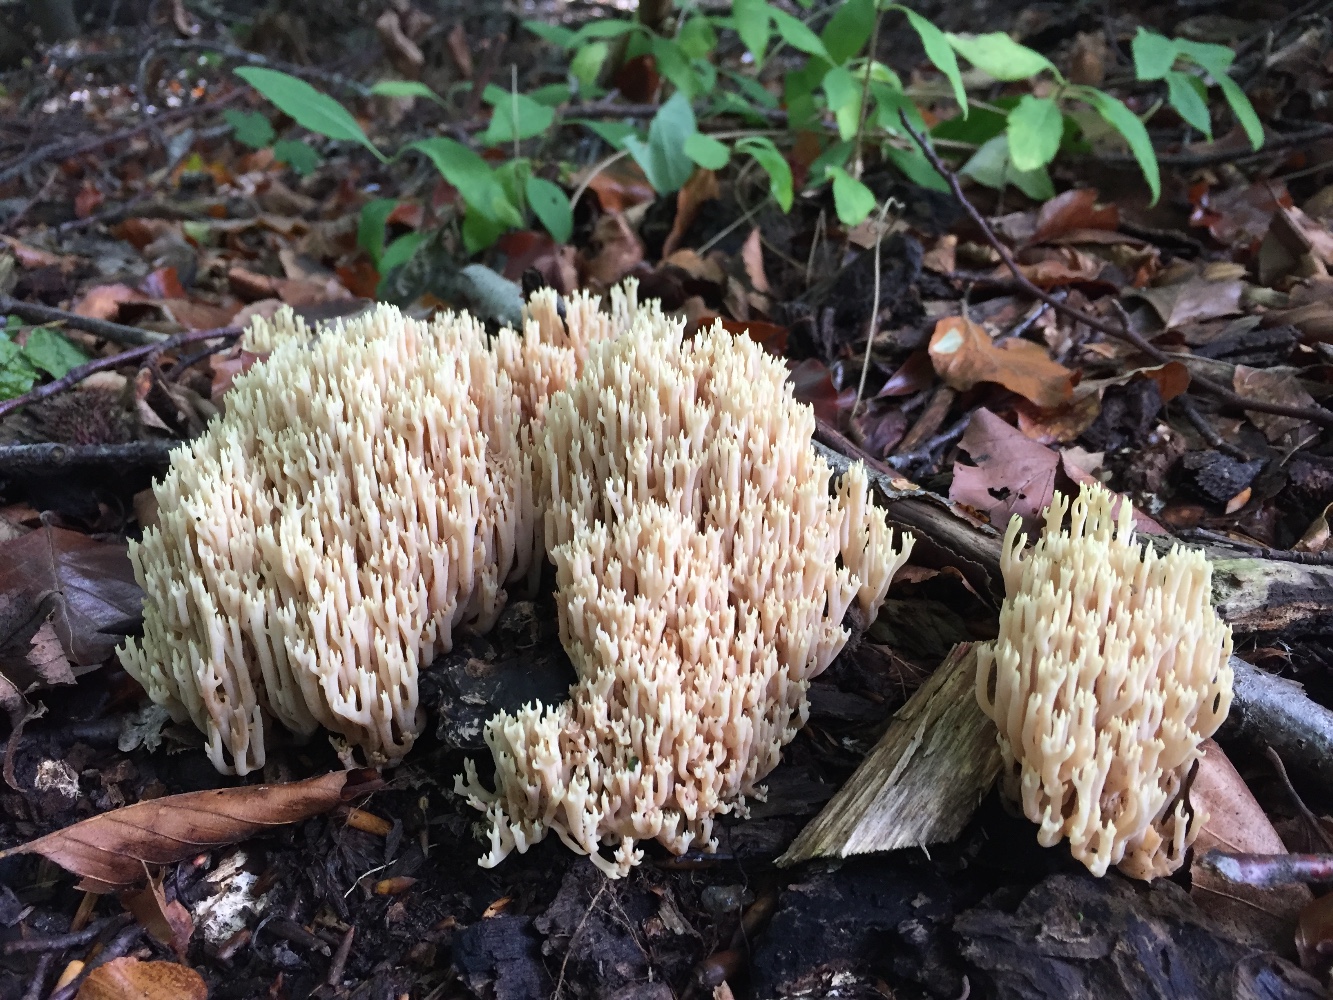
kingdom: Fungi
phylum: Basidiomycota
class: Agaricomycetes
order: Gomphales
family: Gomphaceae
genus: Ramaria
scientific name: Ramaria stricta
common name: rank koralsvamp
